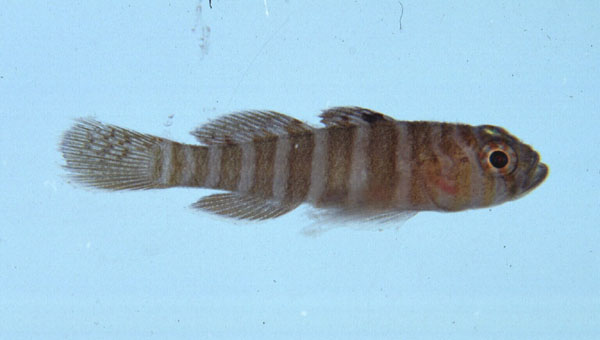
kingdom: Animalia
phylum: Chordata
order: Perciformes
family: Gobiidae
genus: Priolepis
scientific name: Priolepis cincta
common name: Banded reef-goby
